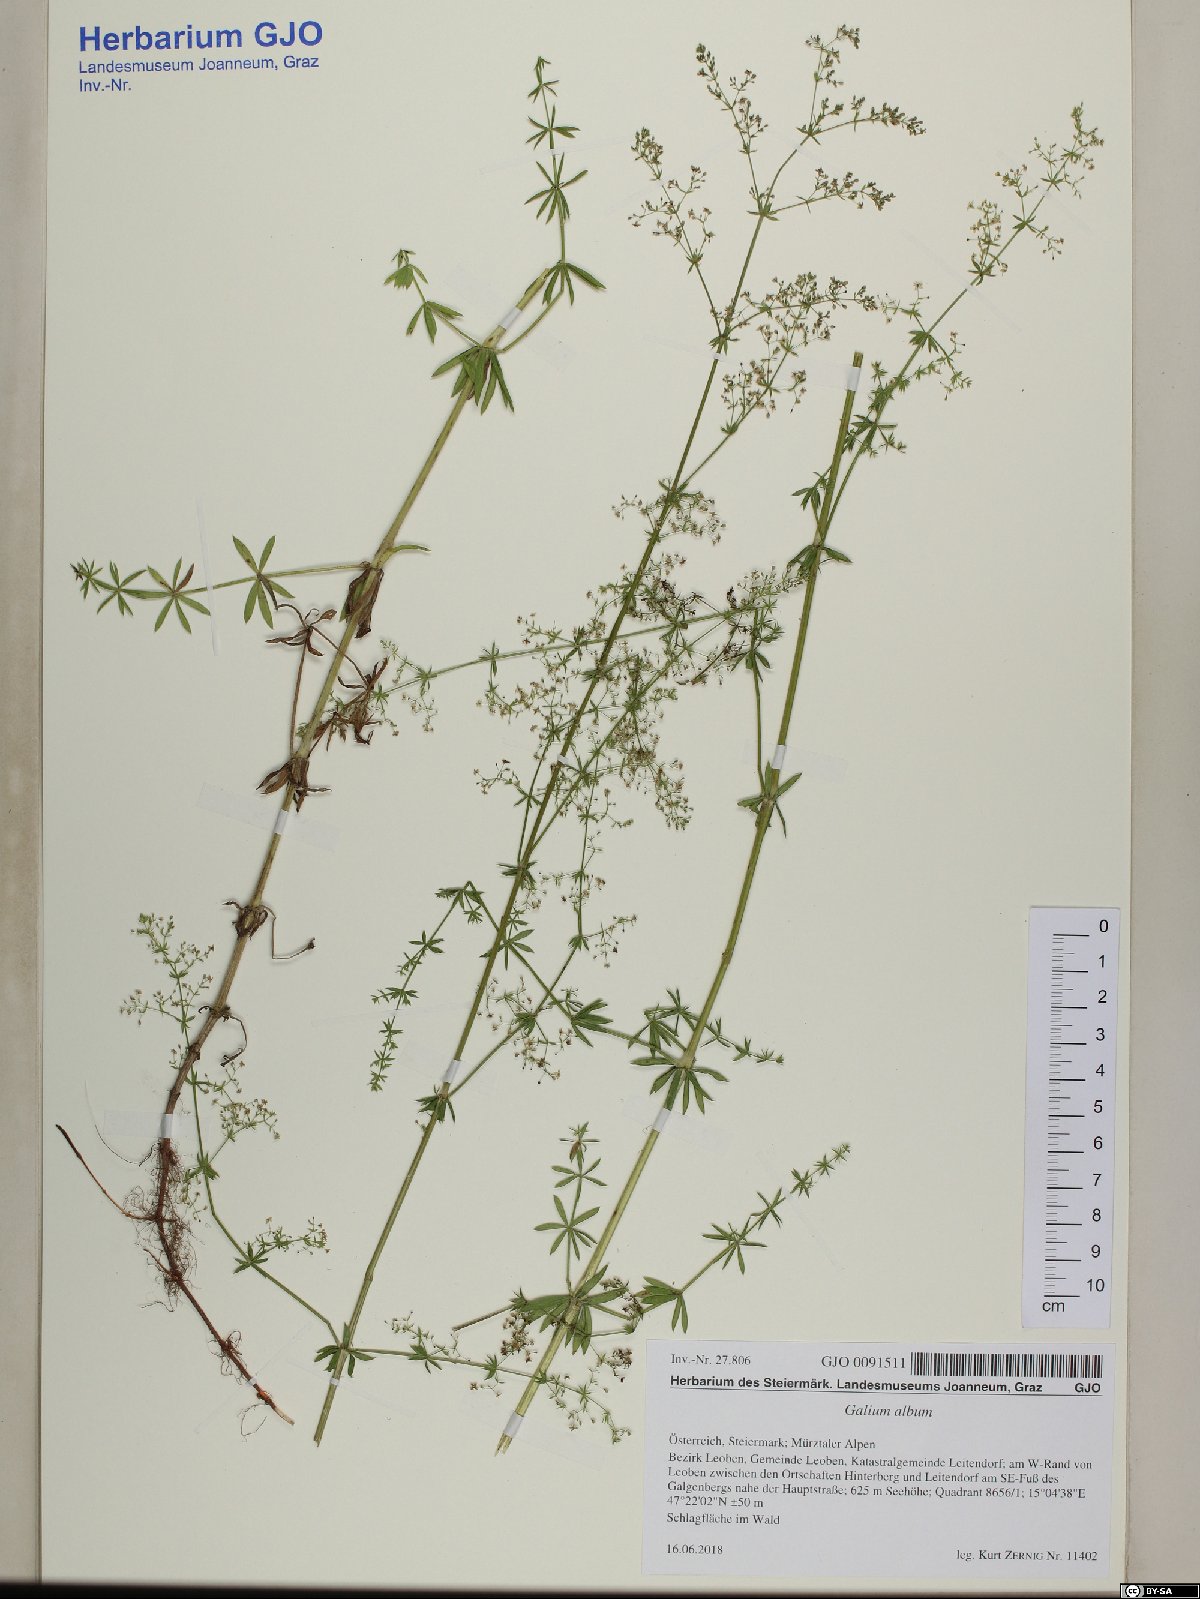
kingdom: Plantae
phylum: Tracheophyta
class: Magnoliopsida
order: Gentianales
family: Rubiaceae
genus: Galium
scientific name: Galium album
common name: White bedstraw
